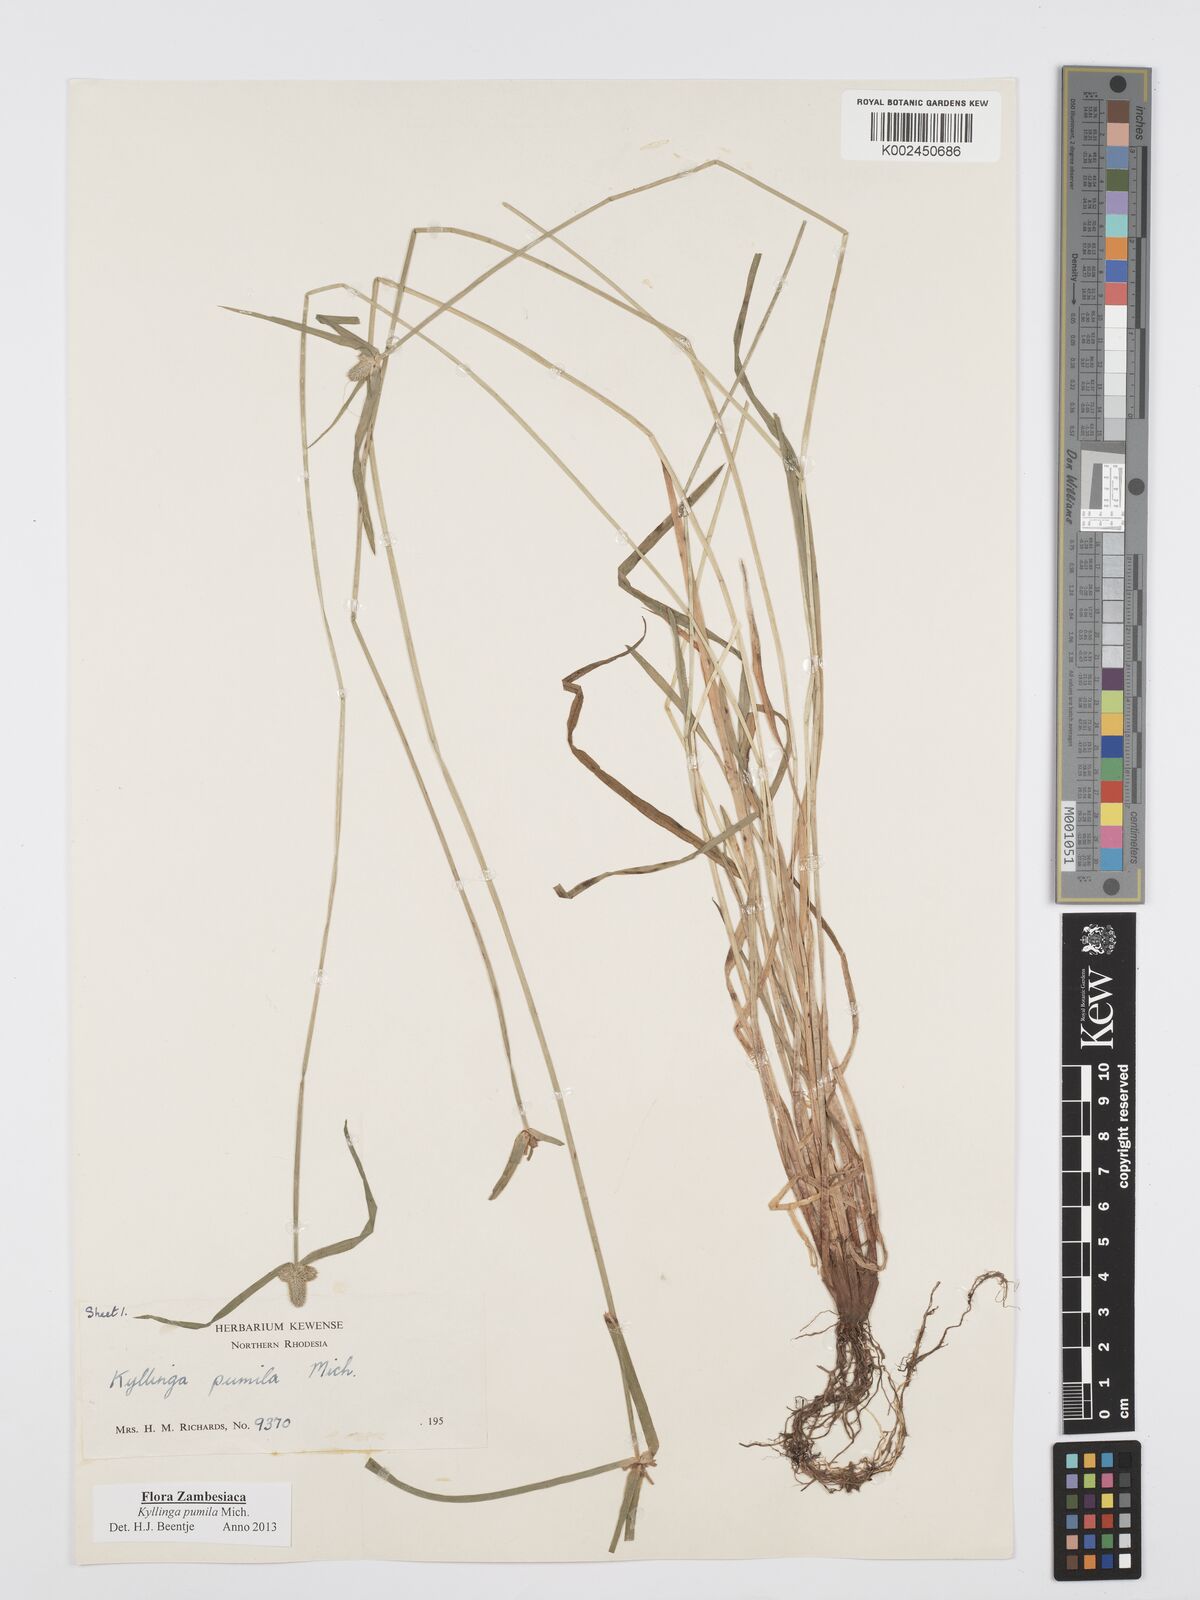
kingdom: Plantae
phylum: Tracheophyta
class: Liliopsida
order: Poales
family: Cyperaceae
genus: Cyperus
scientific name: Cyperus pumilus
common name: Low flatsedge
